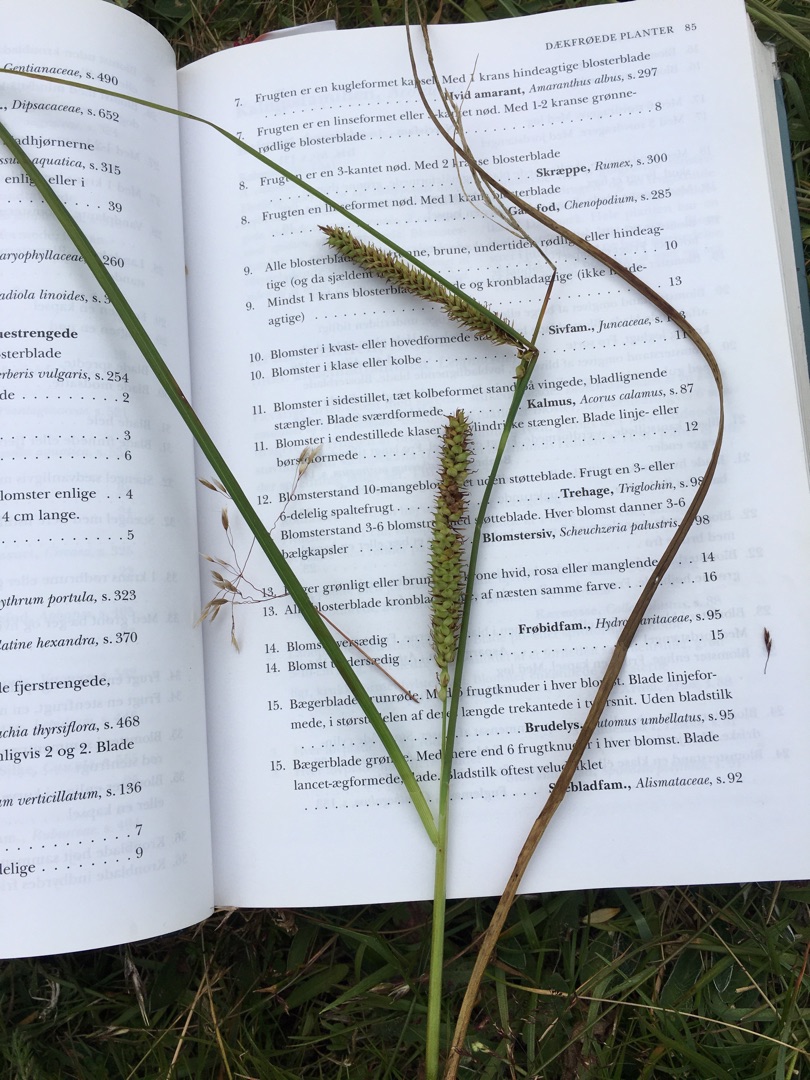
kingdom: Plantae
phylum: Tracheophyta
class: Liliopsida
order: Poales
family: Cyperaceae
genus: Carex
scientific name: Carex rostrata
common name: Næb-star
